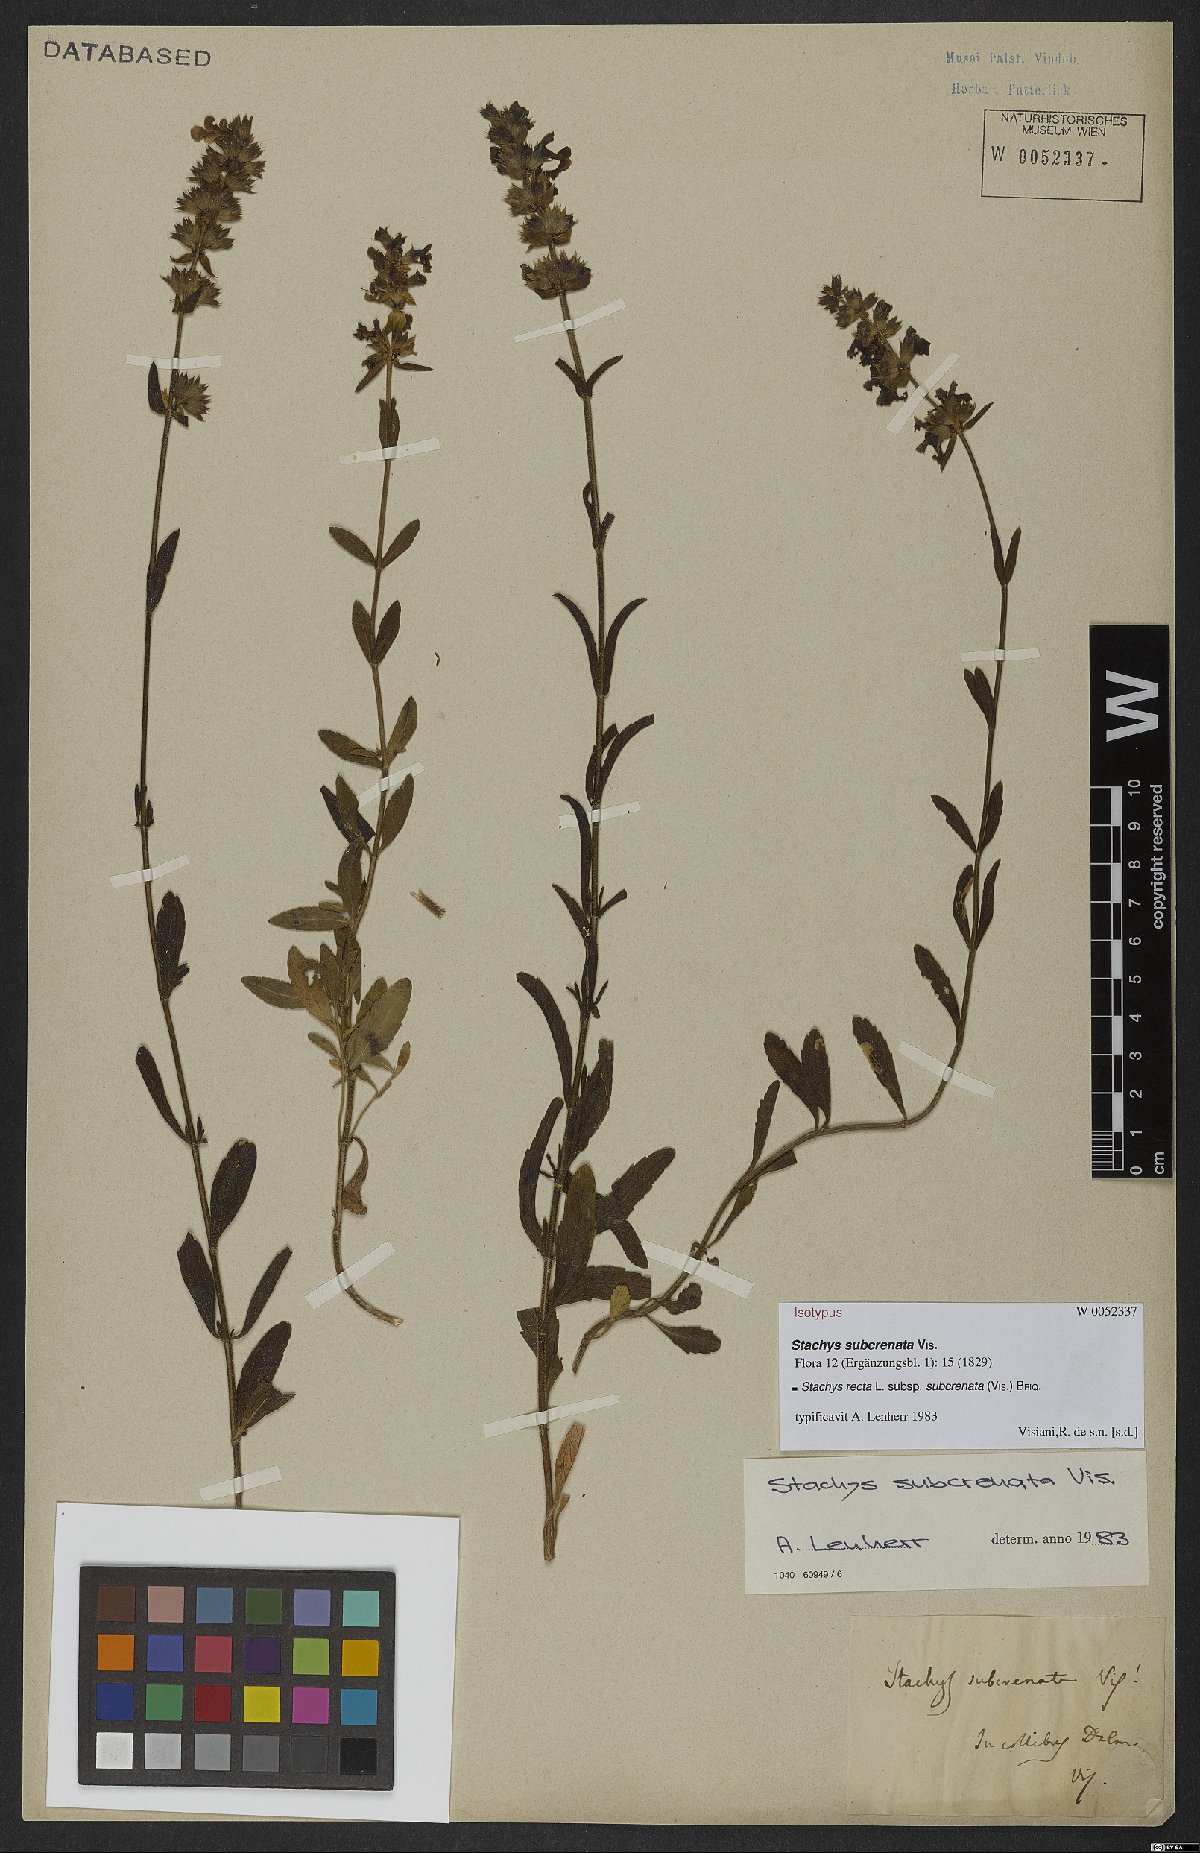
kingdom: Plantae
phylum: Tracheophyta
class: Magnoliopsida
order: Lamiales
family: Lamiaceae
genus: Stachys
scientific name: Stachys recta
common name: Perennial yellow-woundwort
